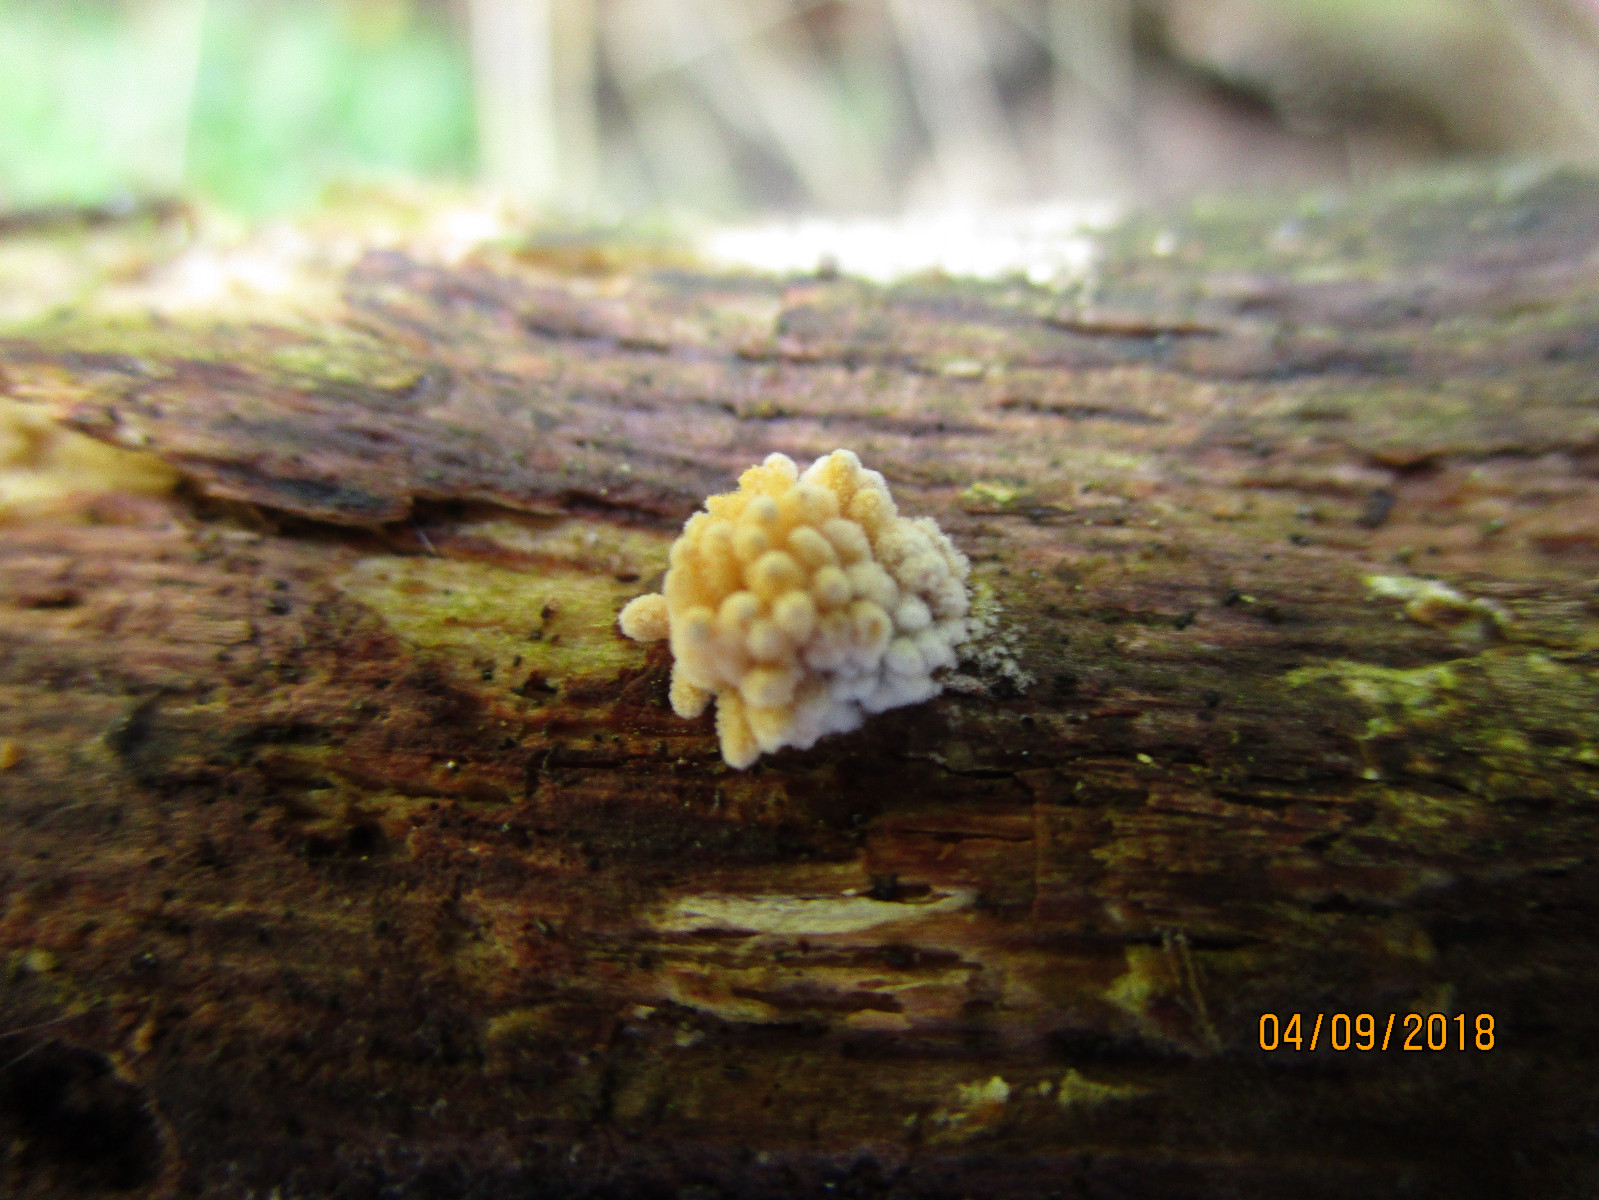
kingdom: Protozoa
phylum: Mycetozoa
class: Myxomycetes
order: Trichiales
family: Arcyriaceae
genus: Arcyria
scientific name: Arcyria obvelata
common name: okkergul skålsvøb
